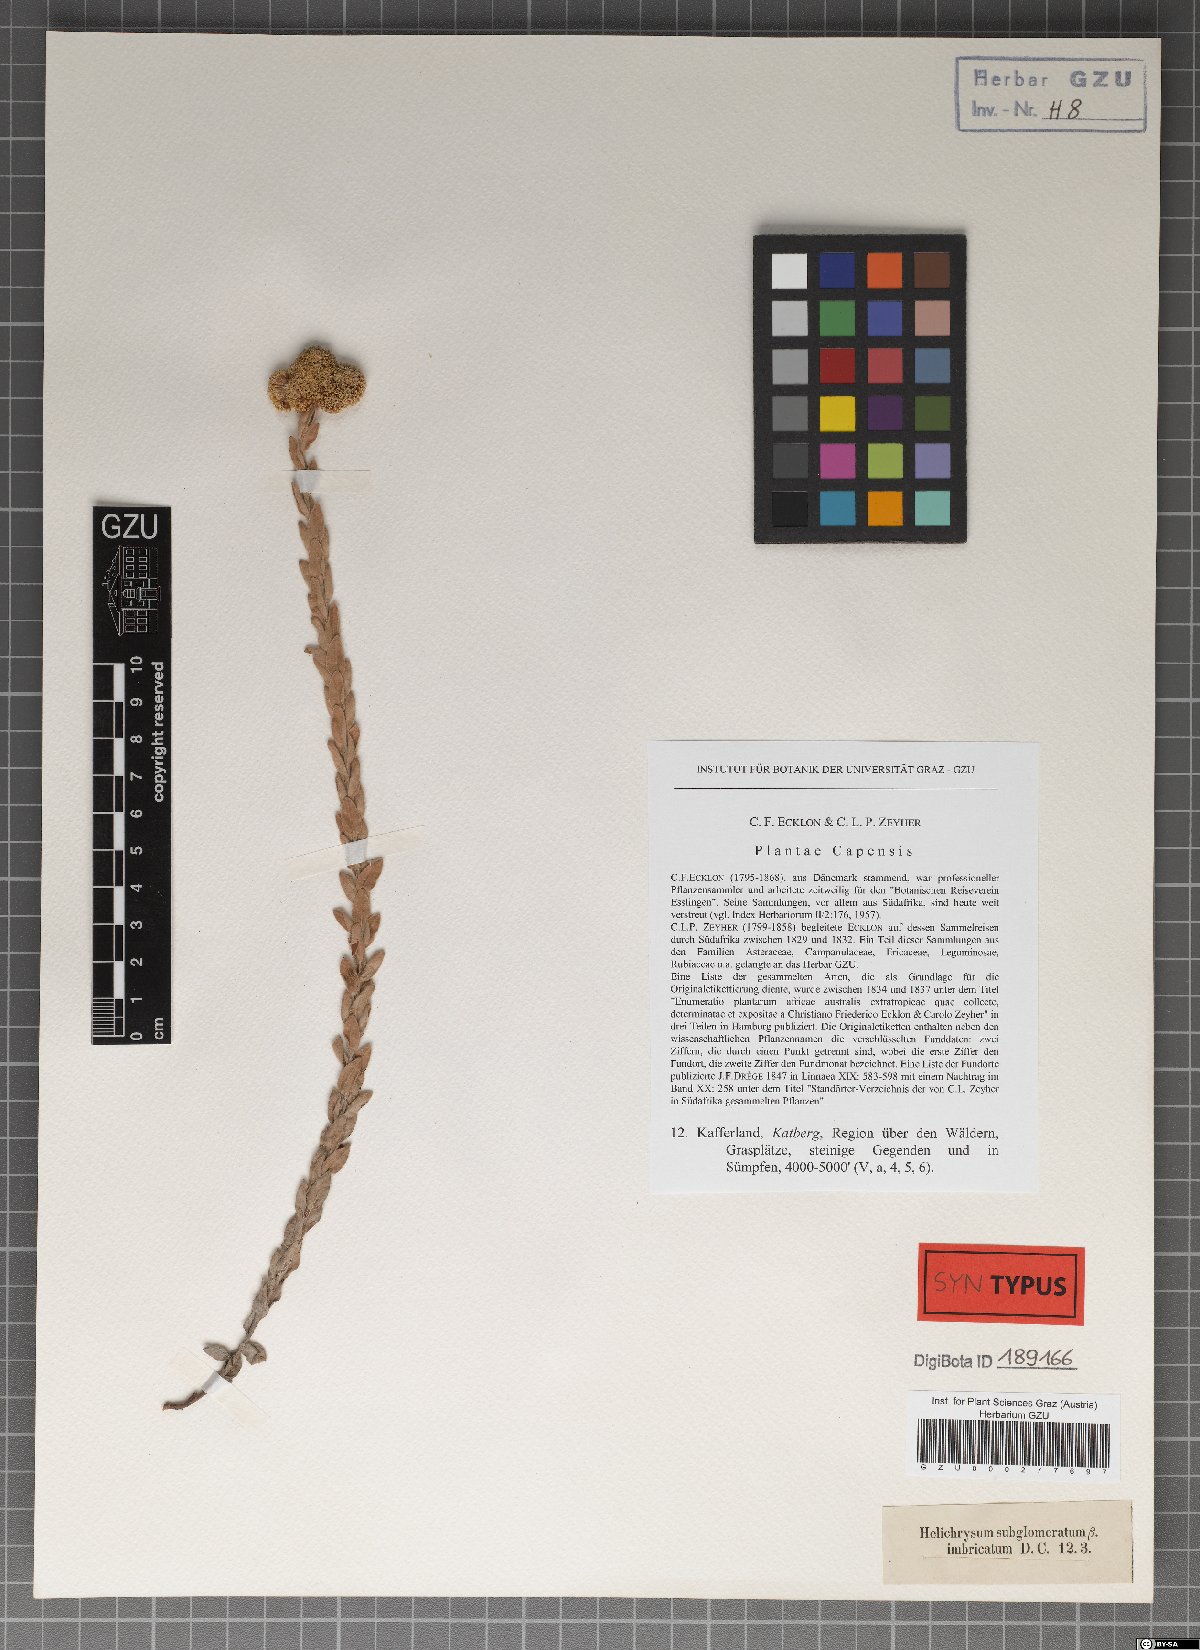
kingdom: Plantae
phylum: Tracheophyta
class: Magnoliopsida
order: Asterales
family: Asteraceae
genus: Helichrysum
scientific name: Helichrysum albanense
